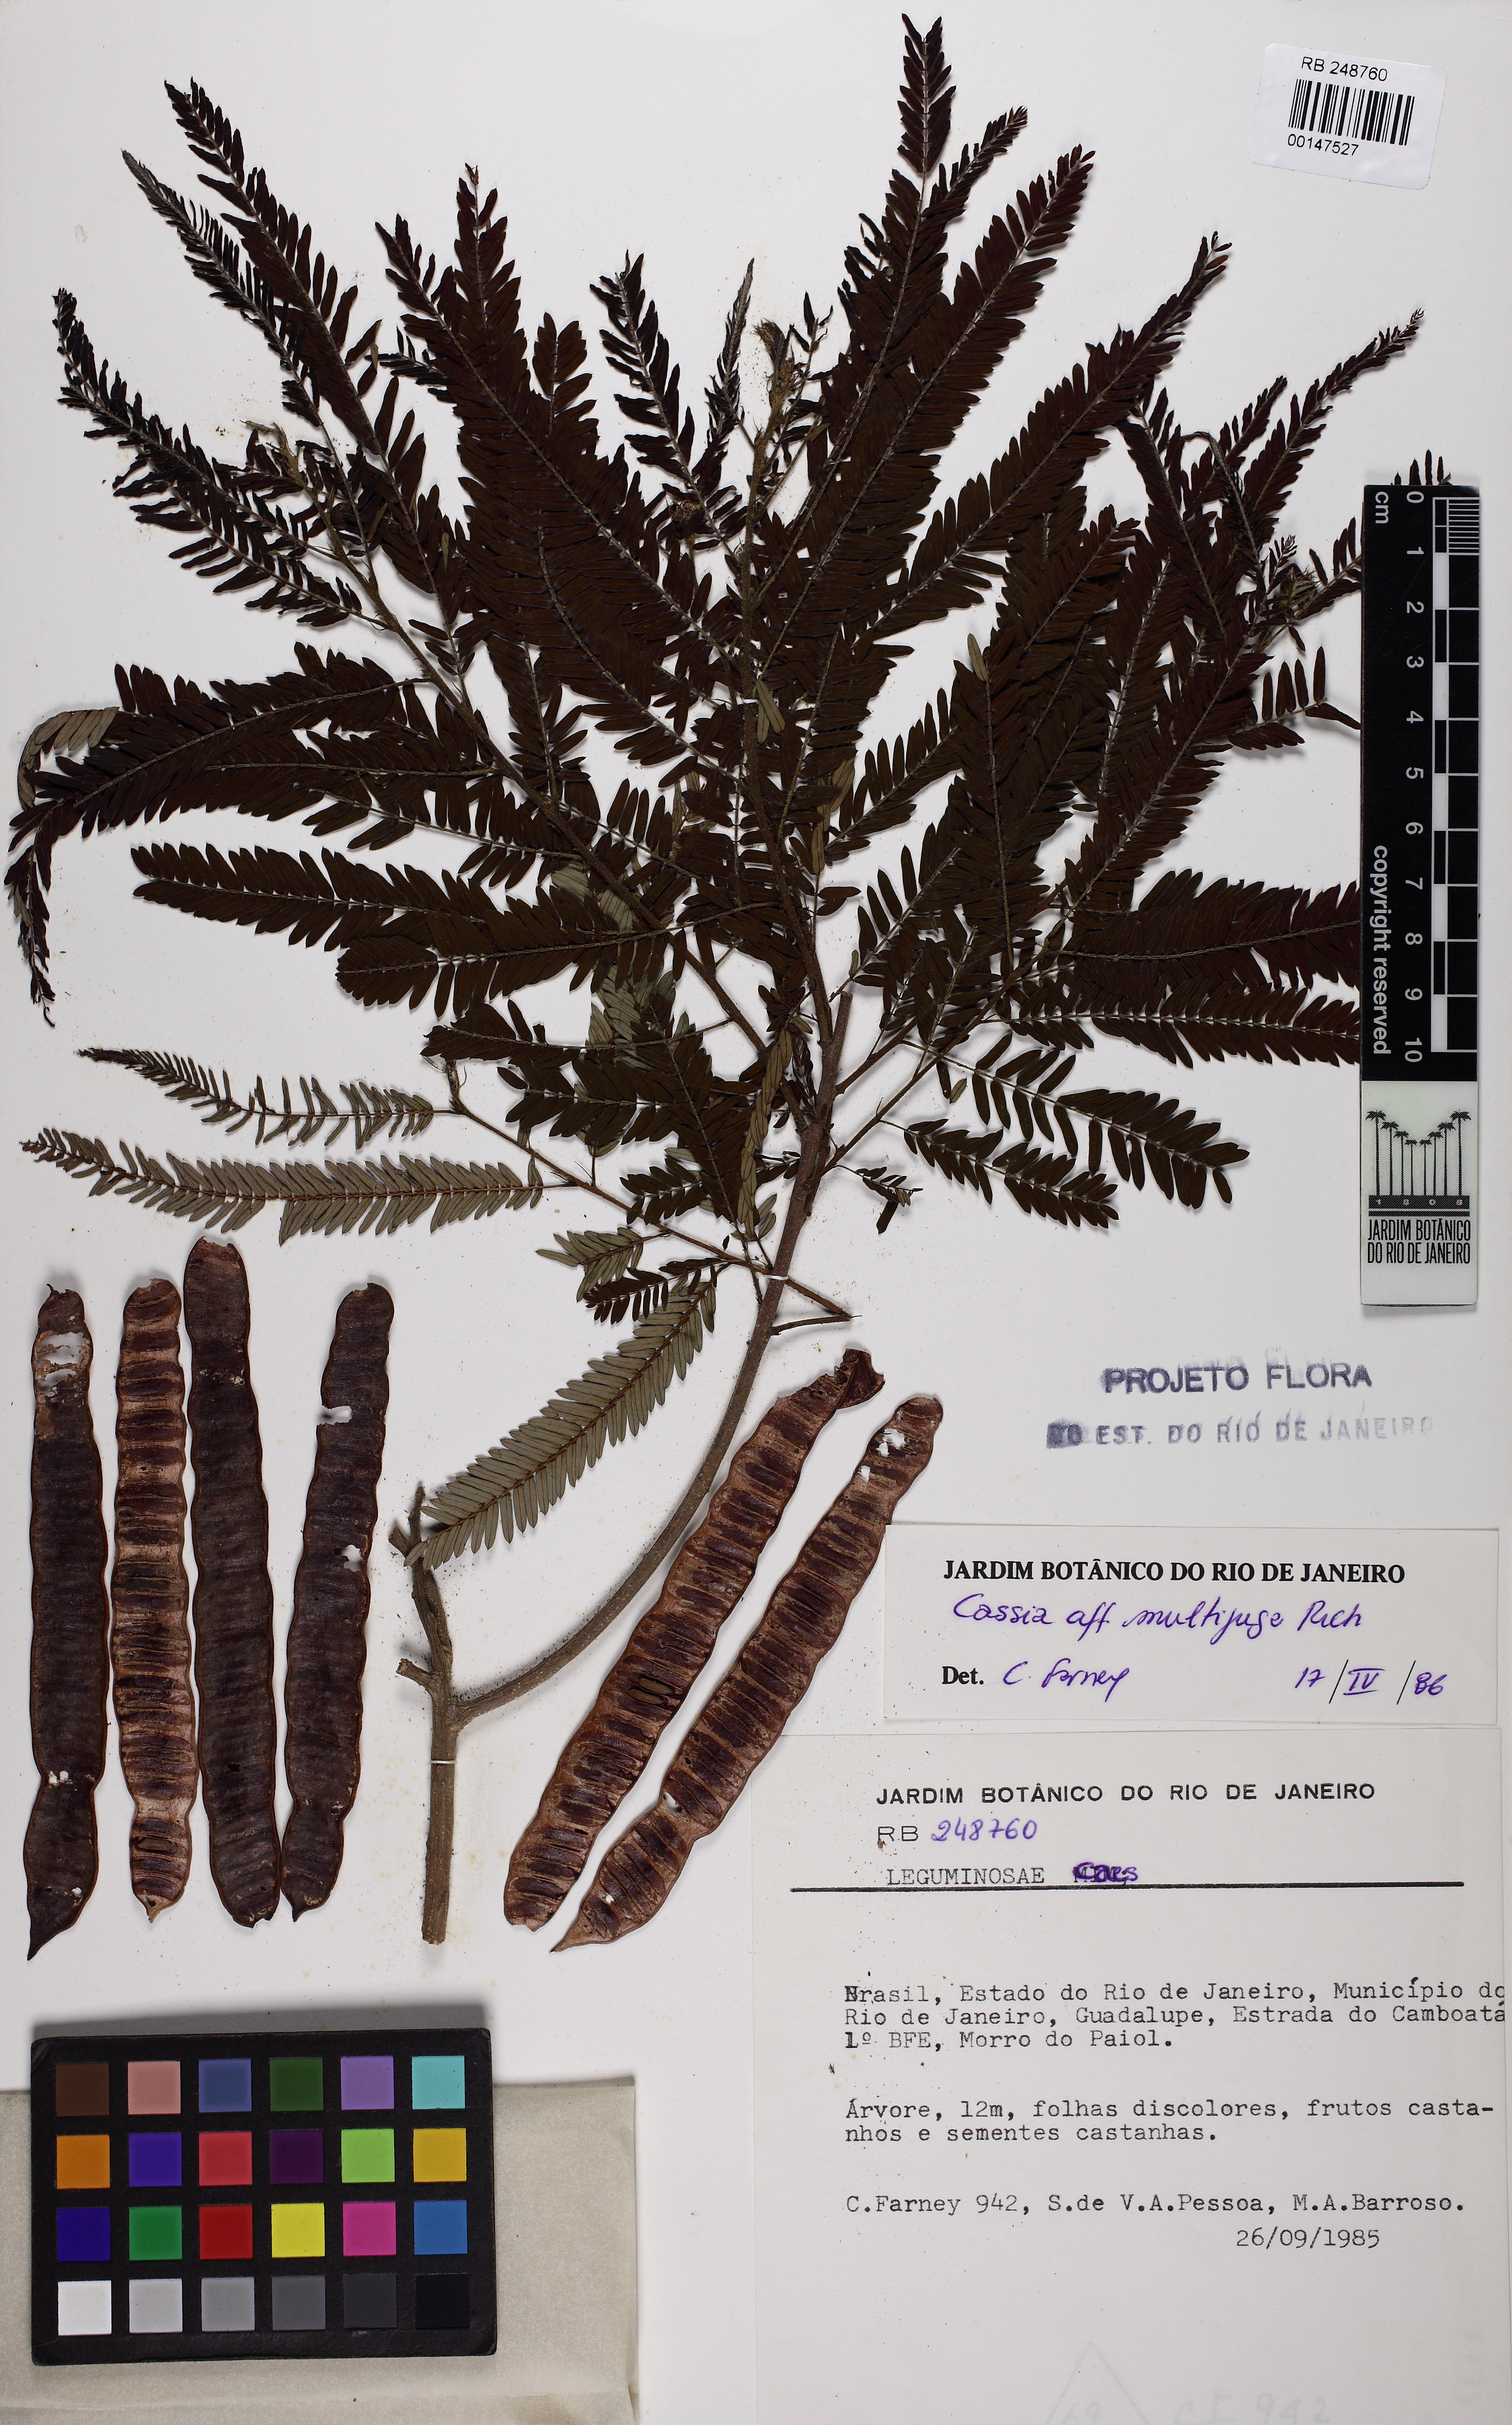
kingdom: Plantae
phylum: Tracheophyta
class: Magnoliopsida
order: Fabales
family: Fabaceae
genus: Senna
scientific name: Senna multijuga
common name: False sicklepod
